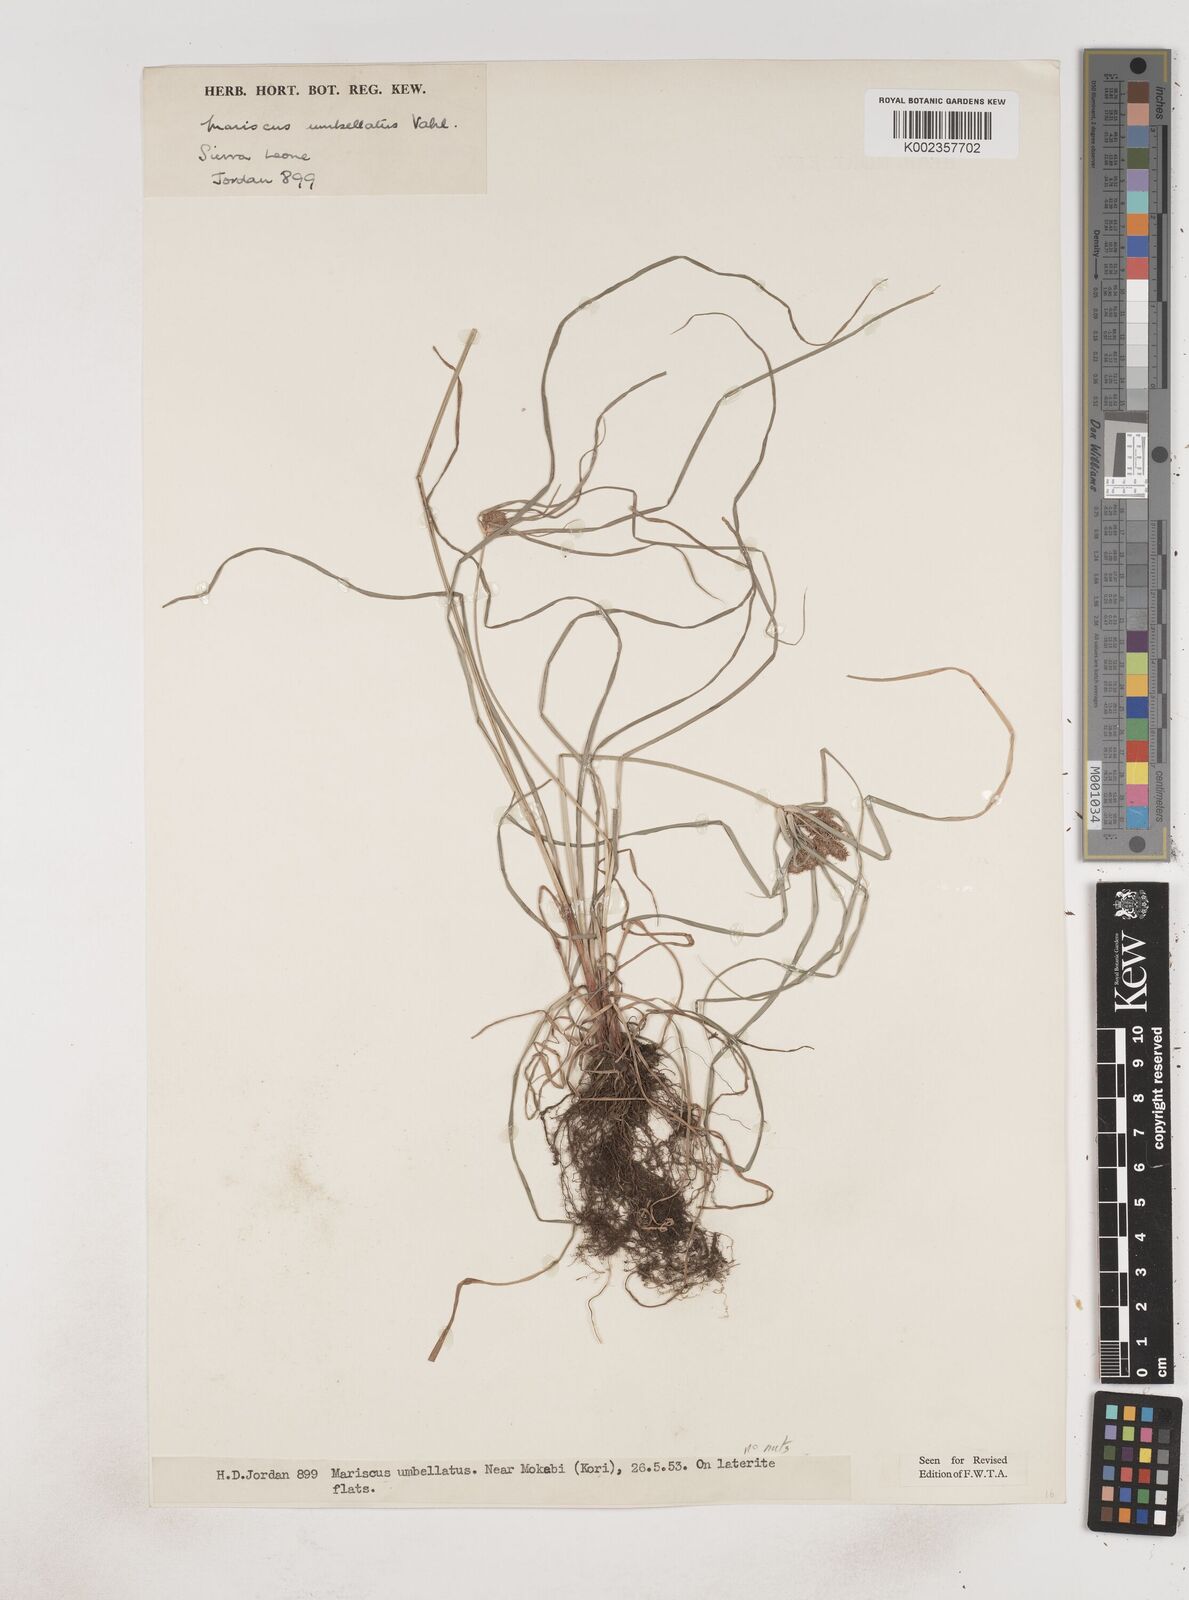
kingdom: Plantae
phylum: Tracheophyta
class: Liliopsida
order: Poales
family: Cyperaceae
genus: Cyperus
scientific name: Cyperus sublimis
